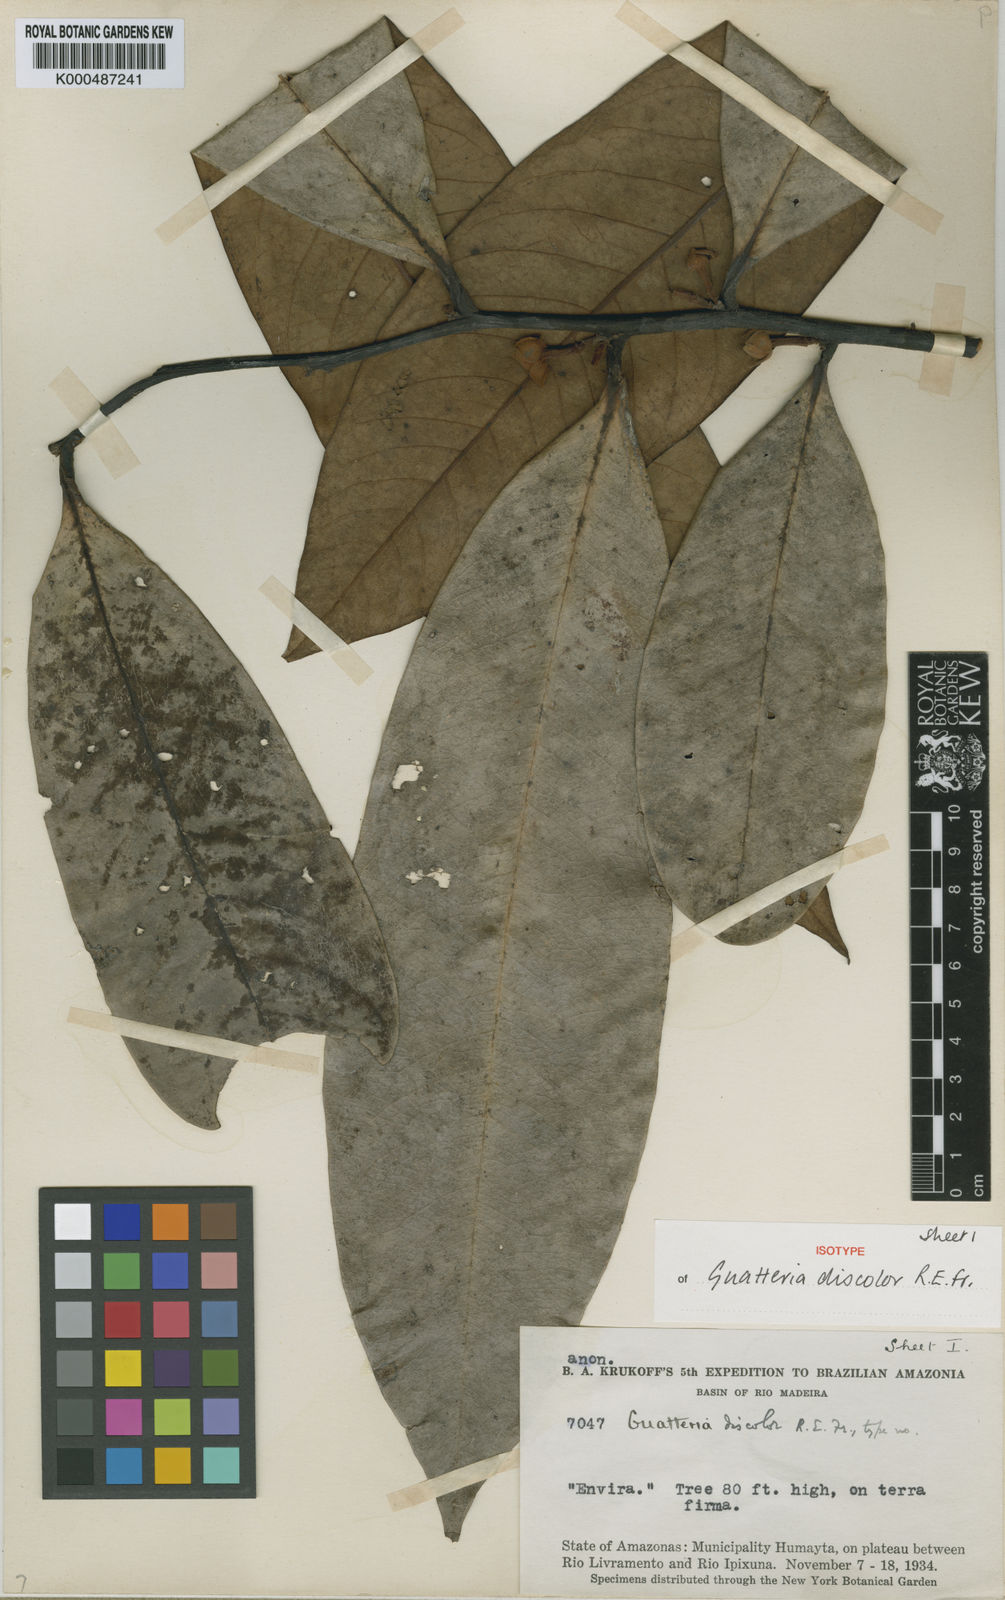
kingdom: Plantae
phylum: Tracheophyta
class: Magnoliopsida
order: Magnoliales
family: Annonaceae
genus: Guatteria
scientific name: Guatteria discolor
